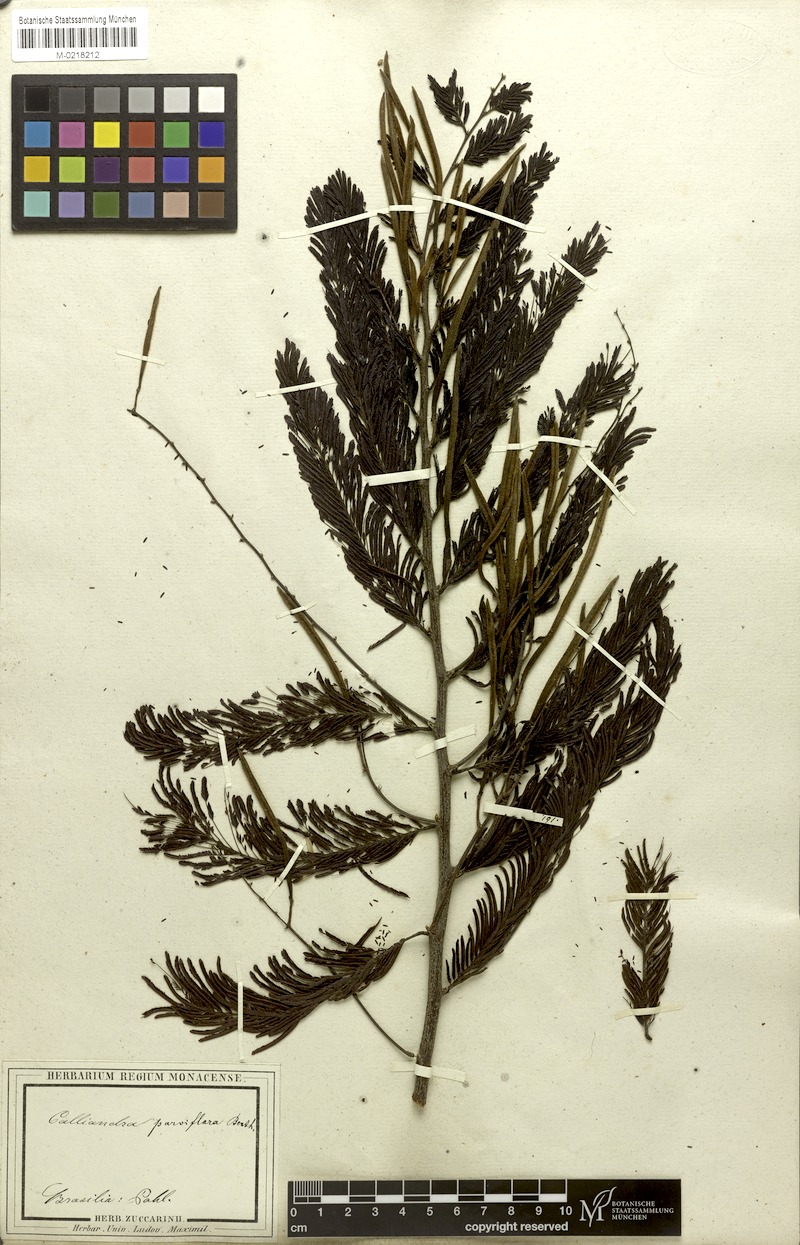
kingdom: Plantae
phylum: Tracheophyta
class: Magnoliopsida
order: Fabales
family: Fabaceae
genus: Calliandra
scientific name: Calliandra parviflora
